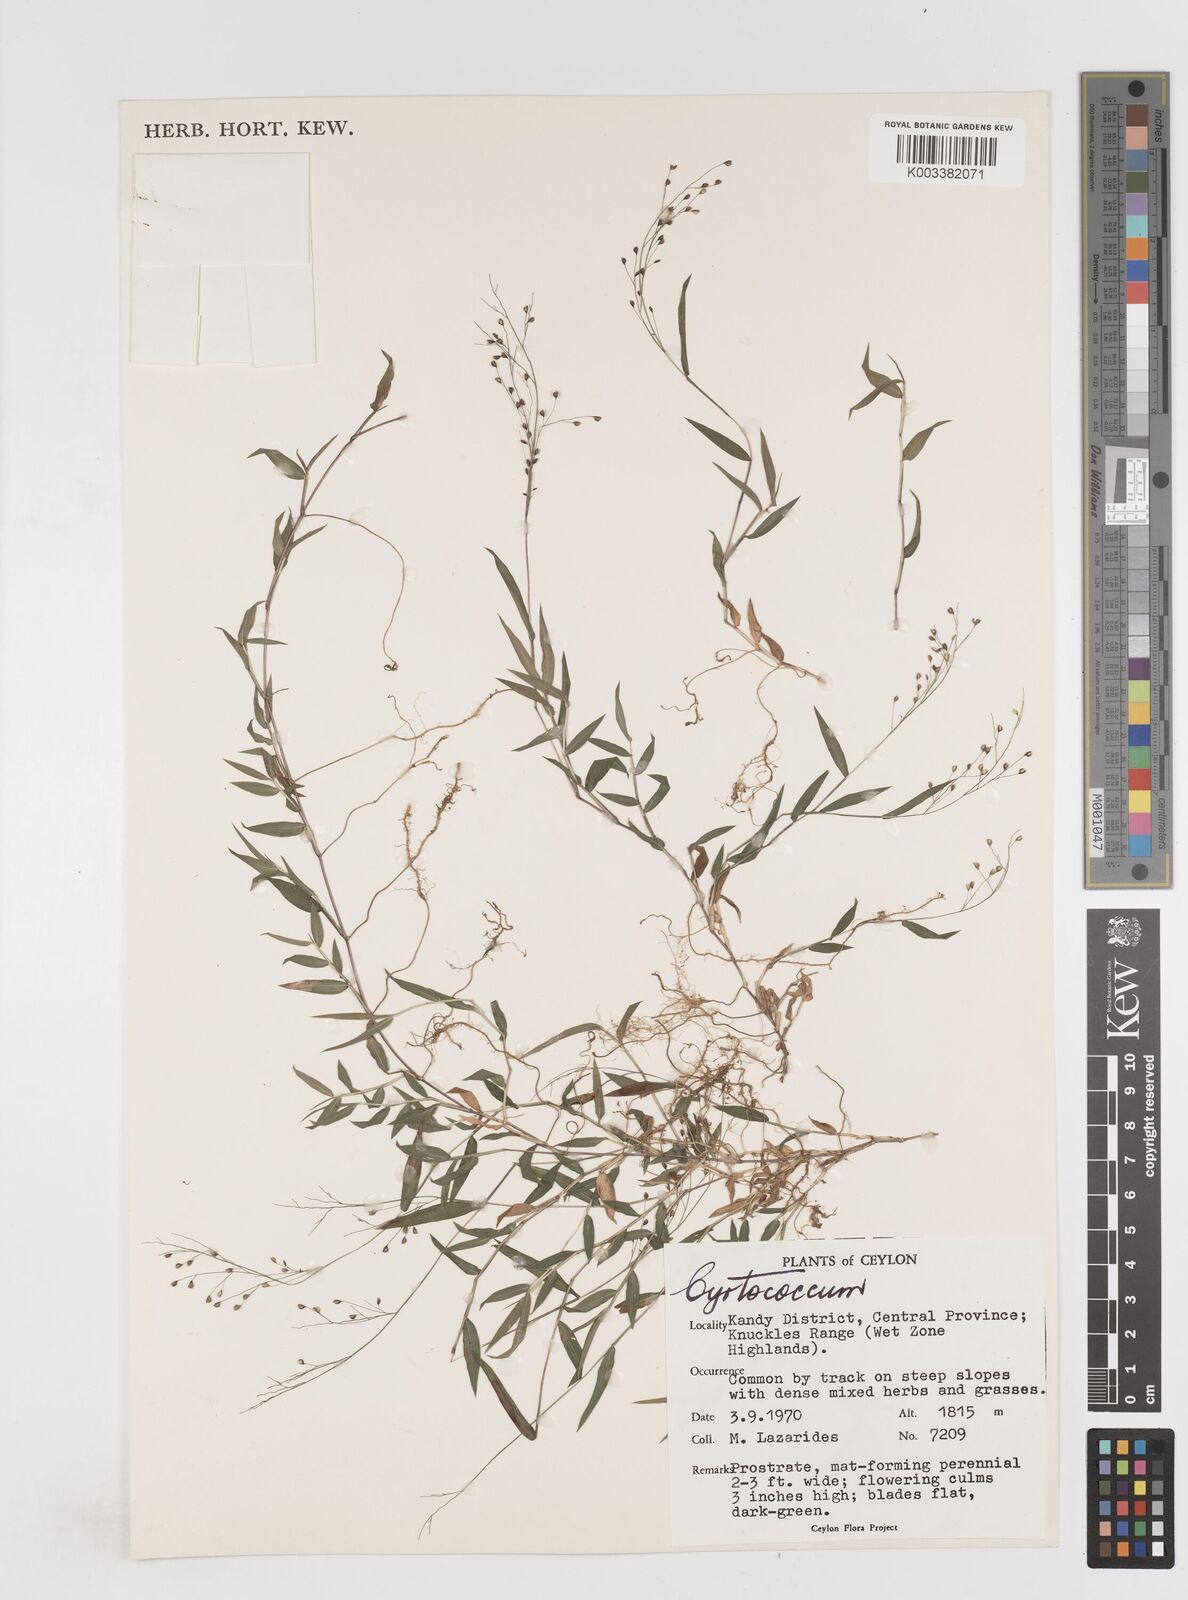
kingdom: Plantae
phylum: Tracheophyta
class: Liliopsida
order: Poales
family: Poaceae
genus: Cyrtococcum
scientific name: Cyrtococcum deccanense
